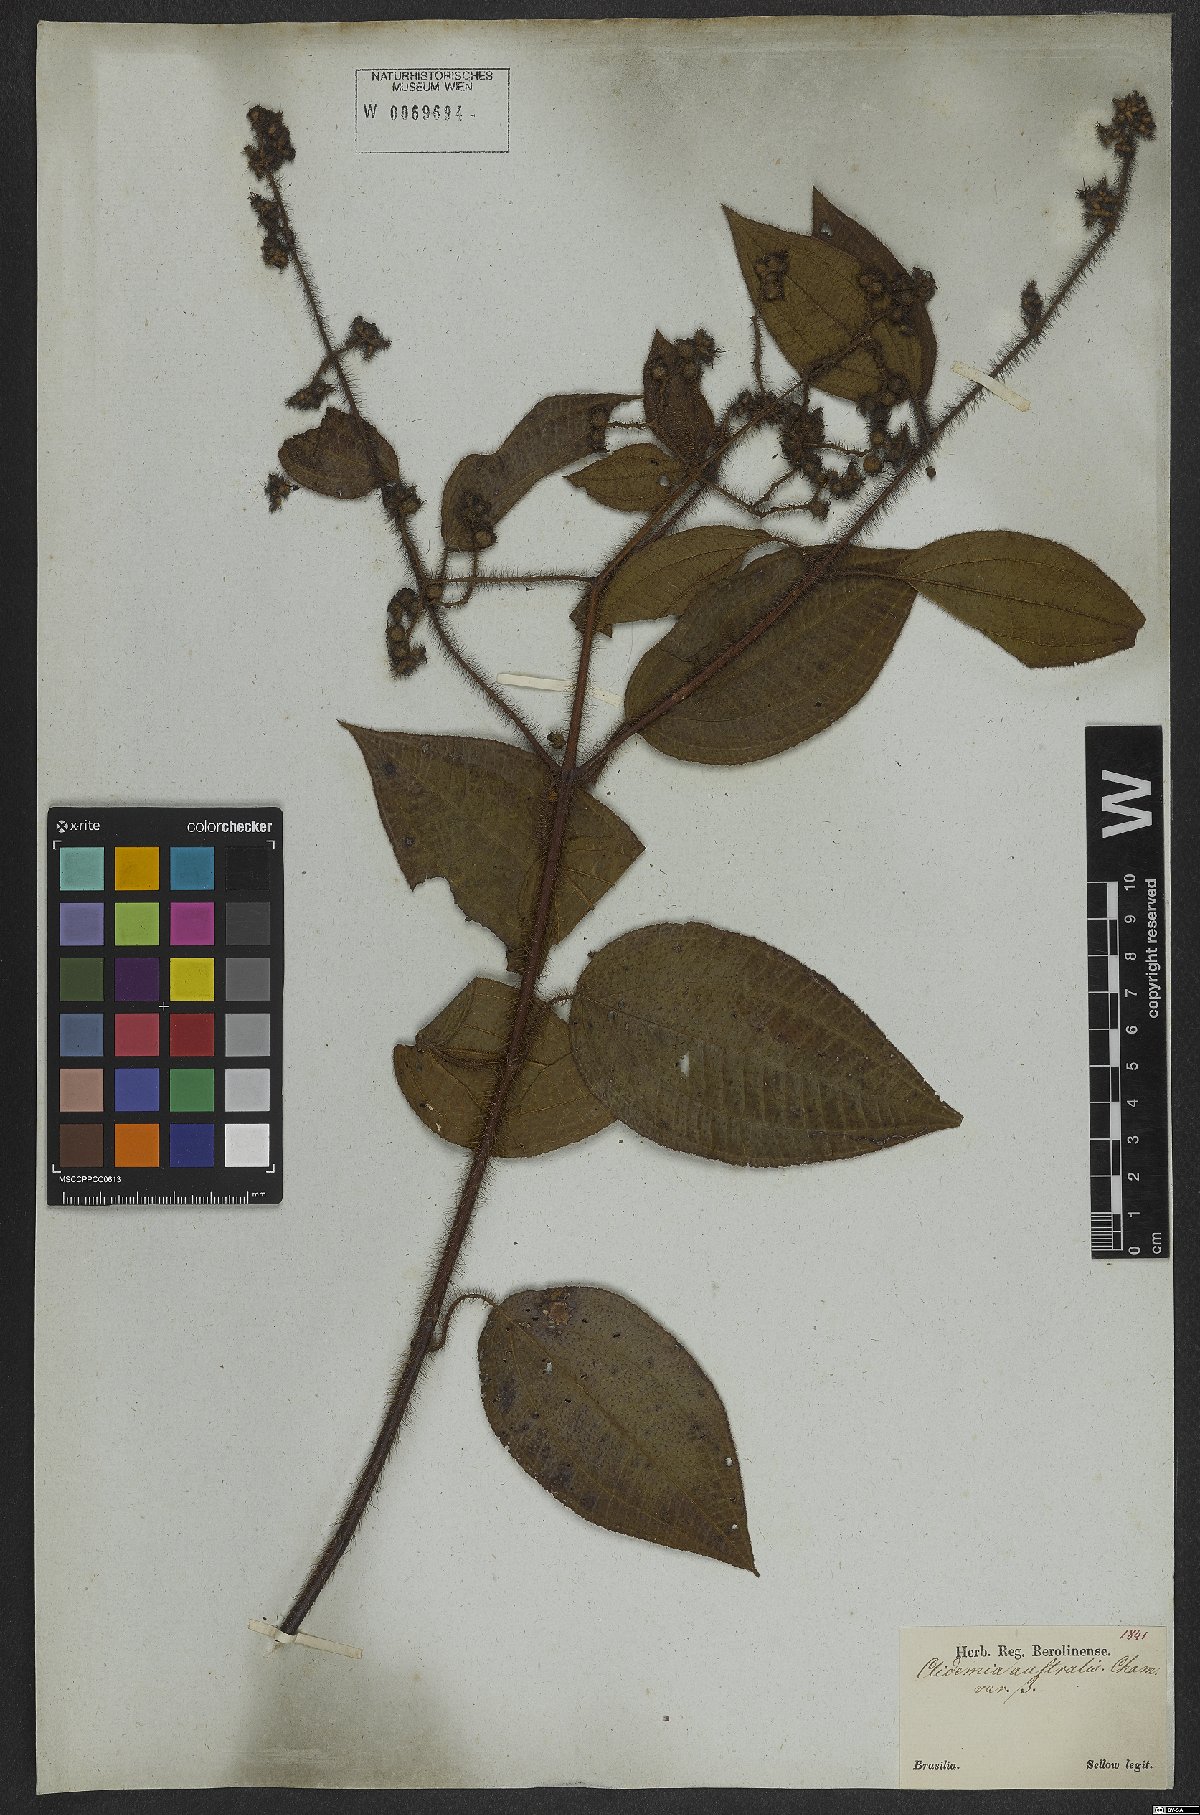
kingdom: Plantae
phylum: Tracheophyta
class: Magnoliopsida
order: Myrtales
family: Melastomataceae
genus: Miconia
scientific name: Miconia australis
